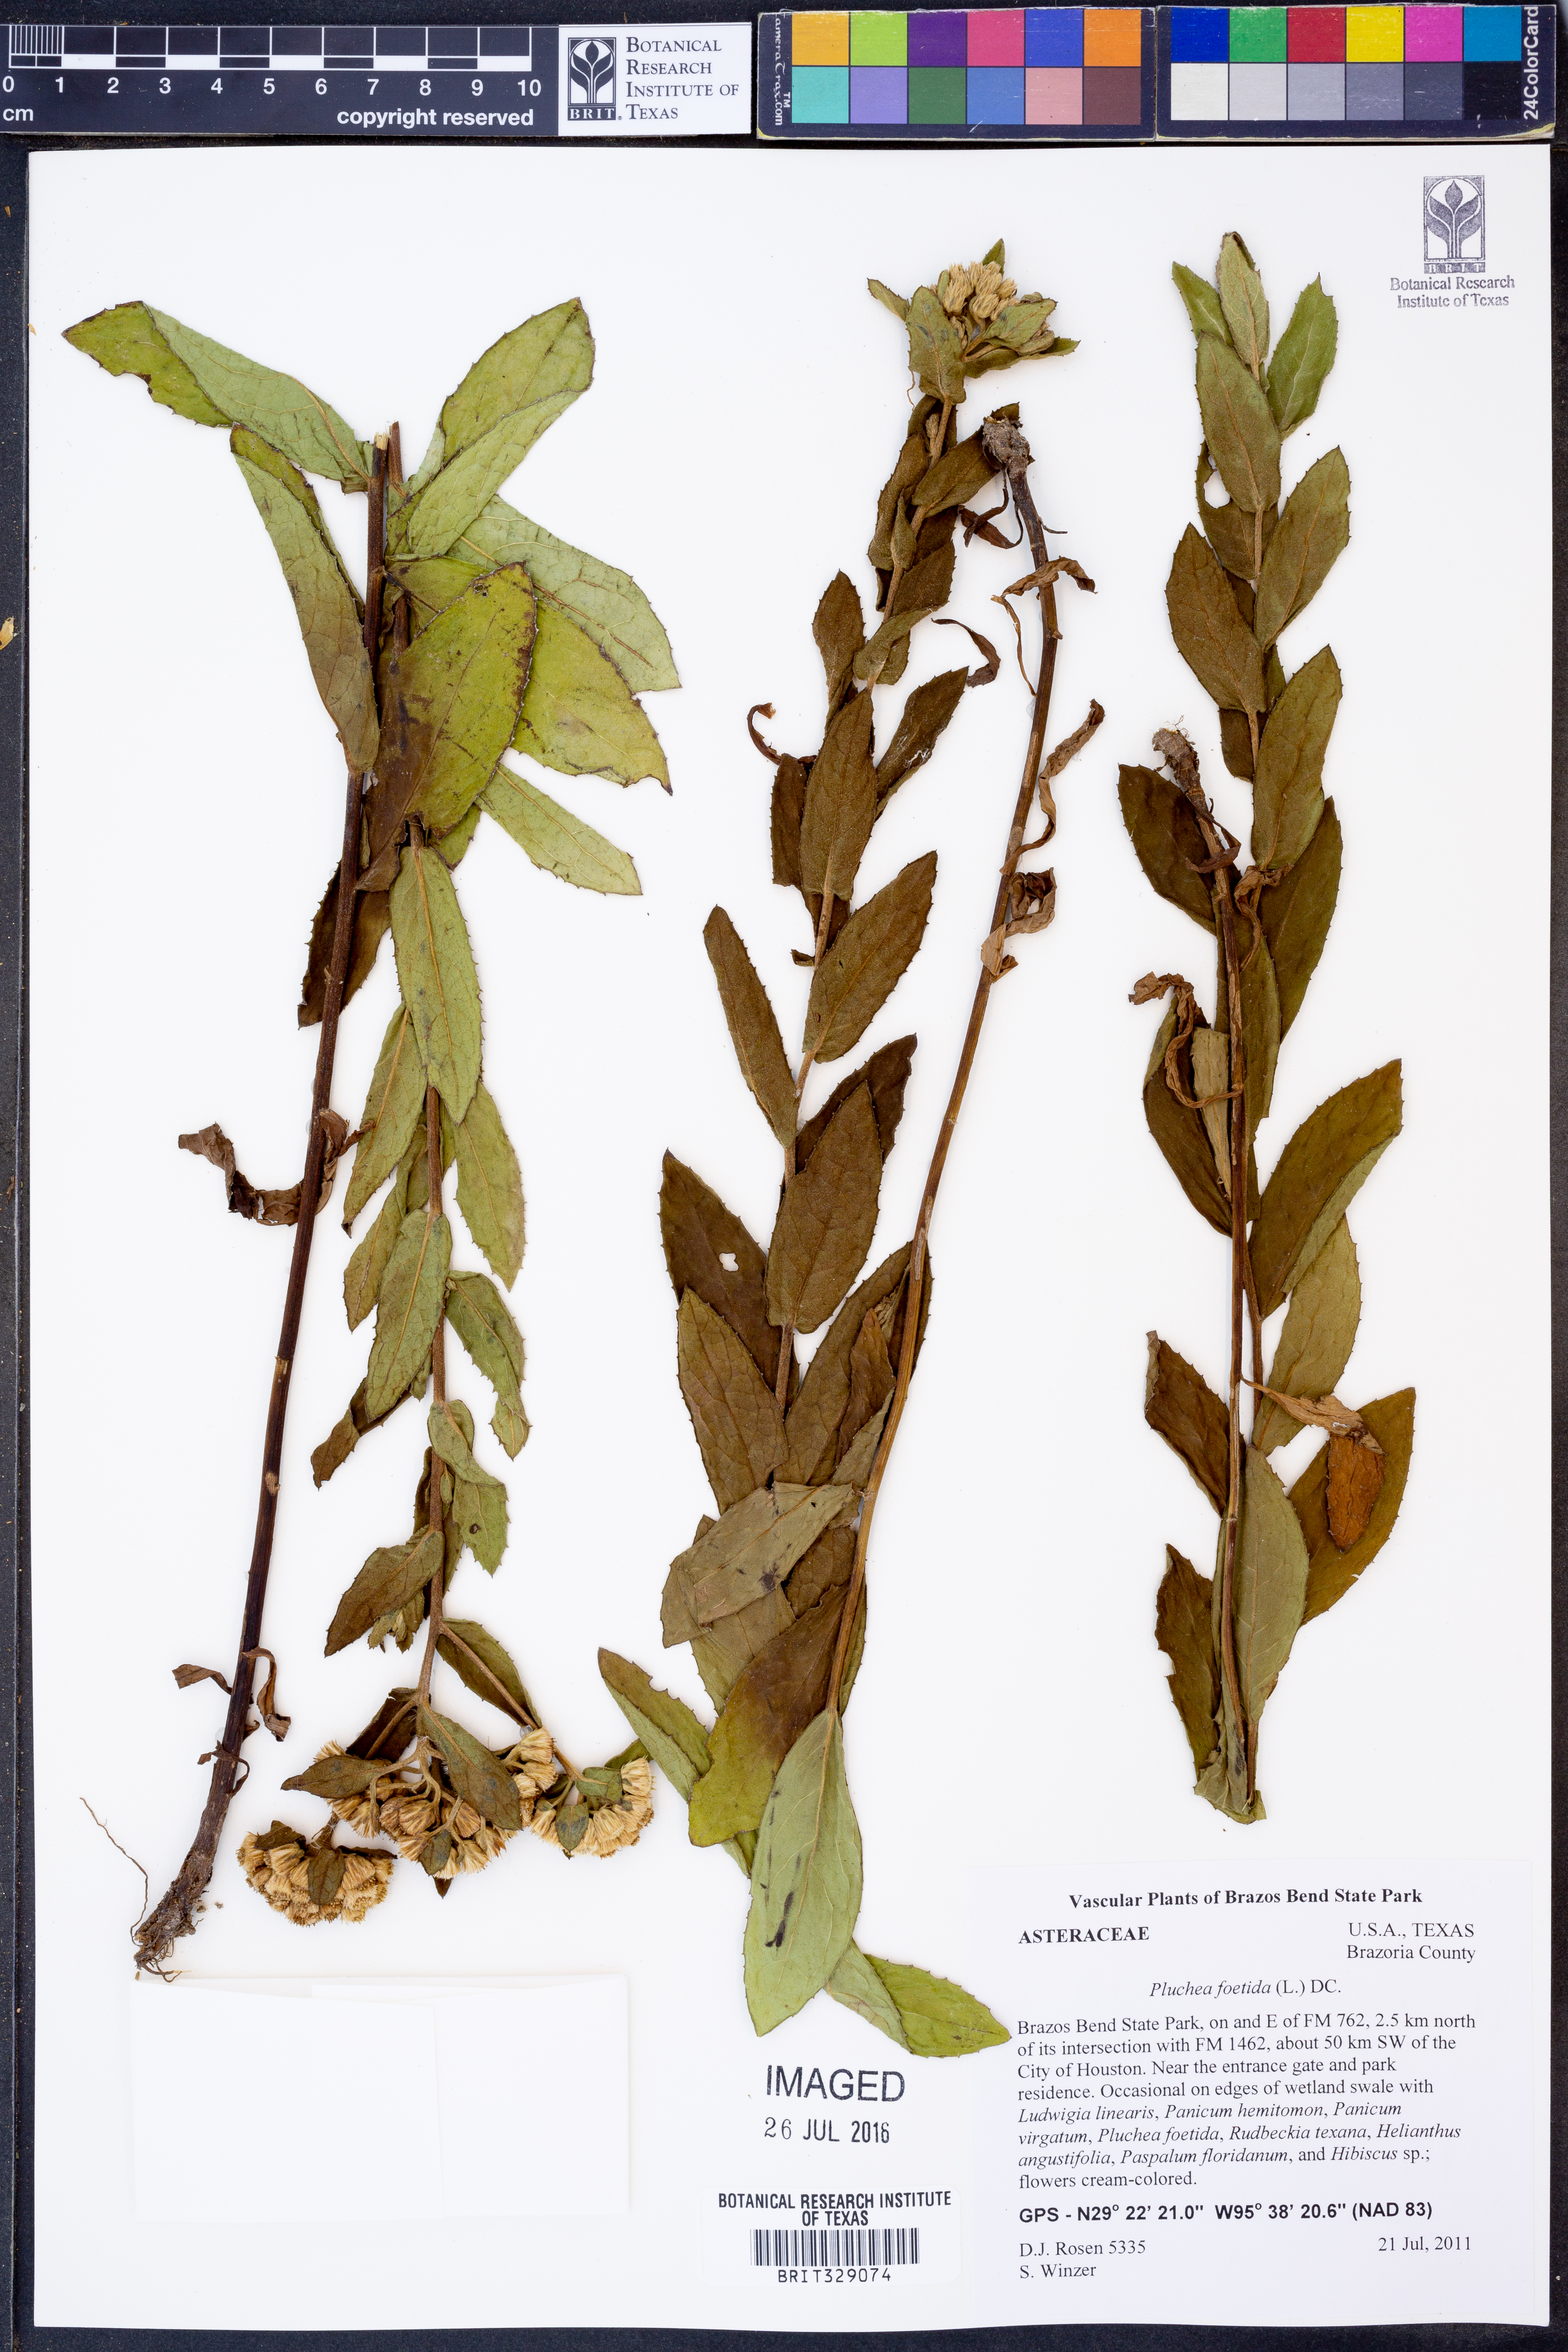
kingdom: Plantae
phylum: Tracheophyta
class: Magnoliopsida
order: Asterales
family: Asteraceae
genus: Pluchea
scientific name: Pluchea foetida
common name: Stinking camphorweed
